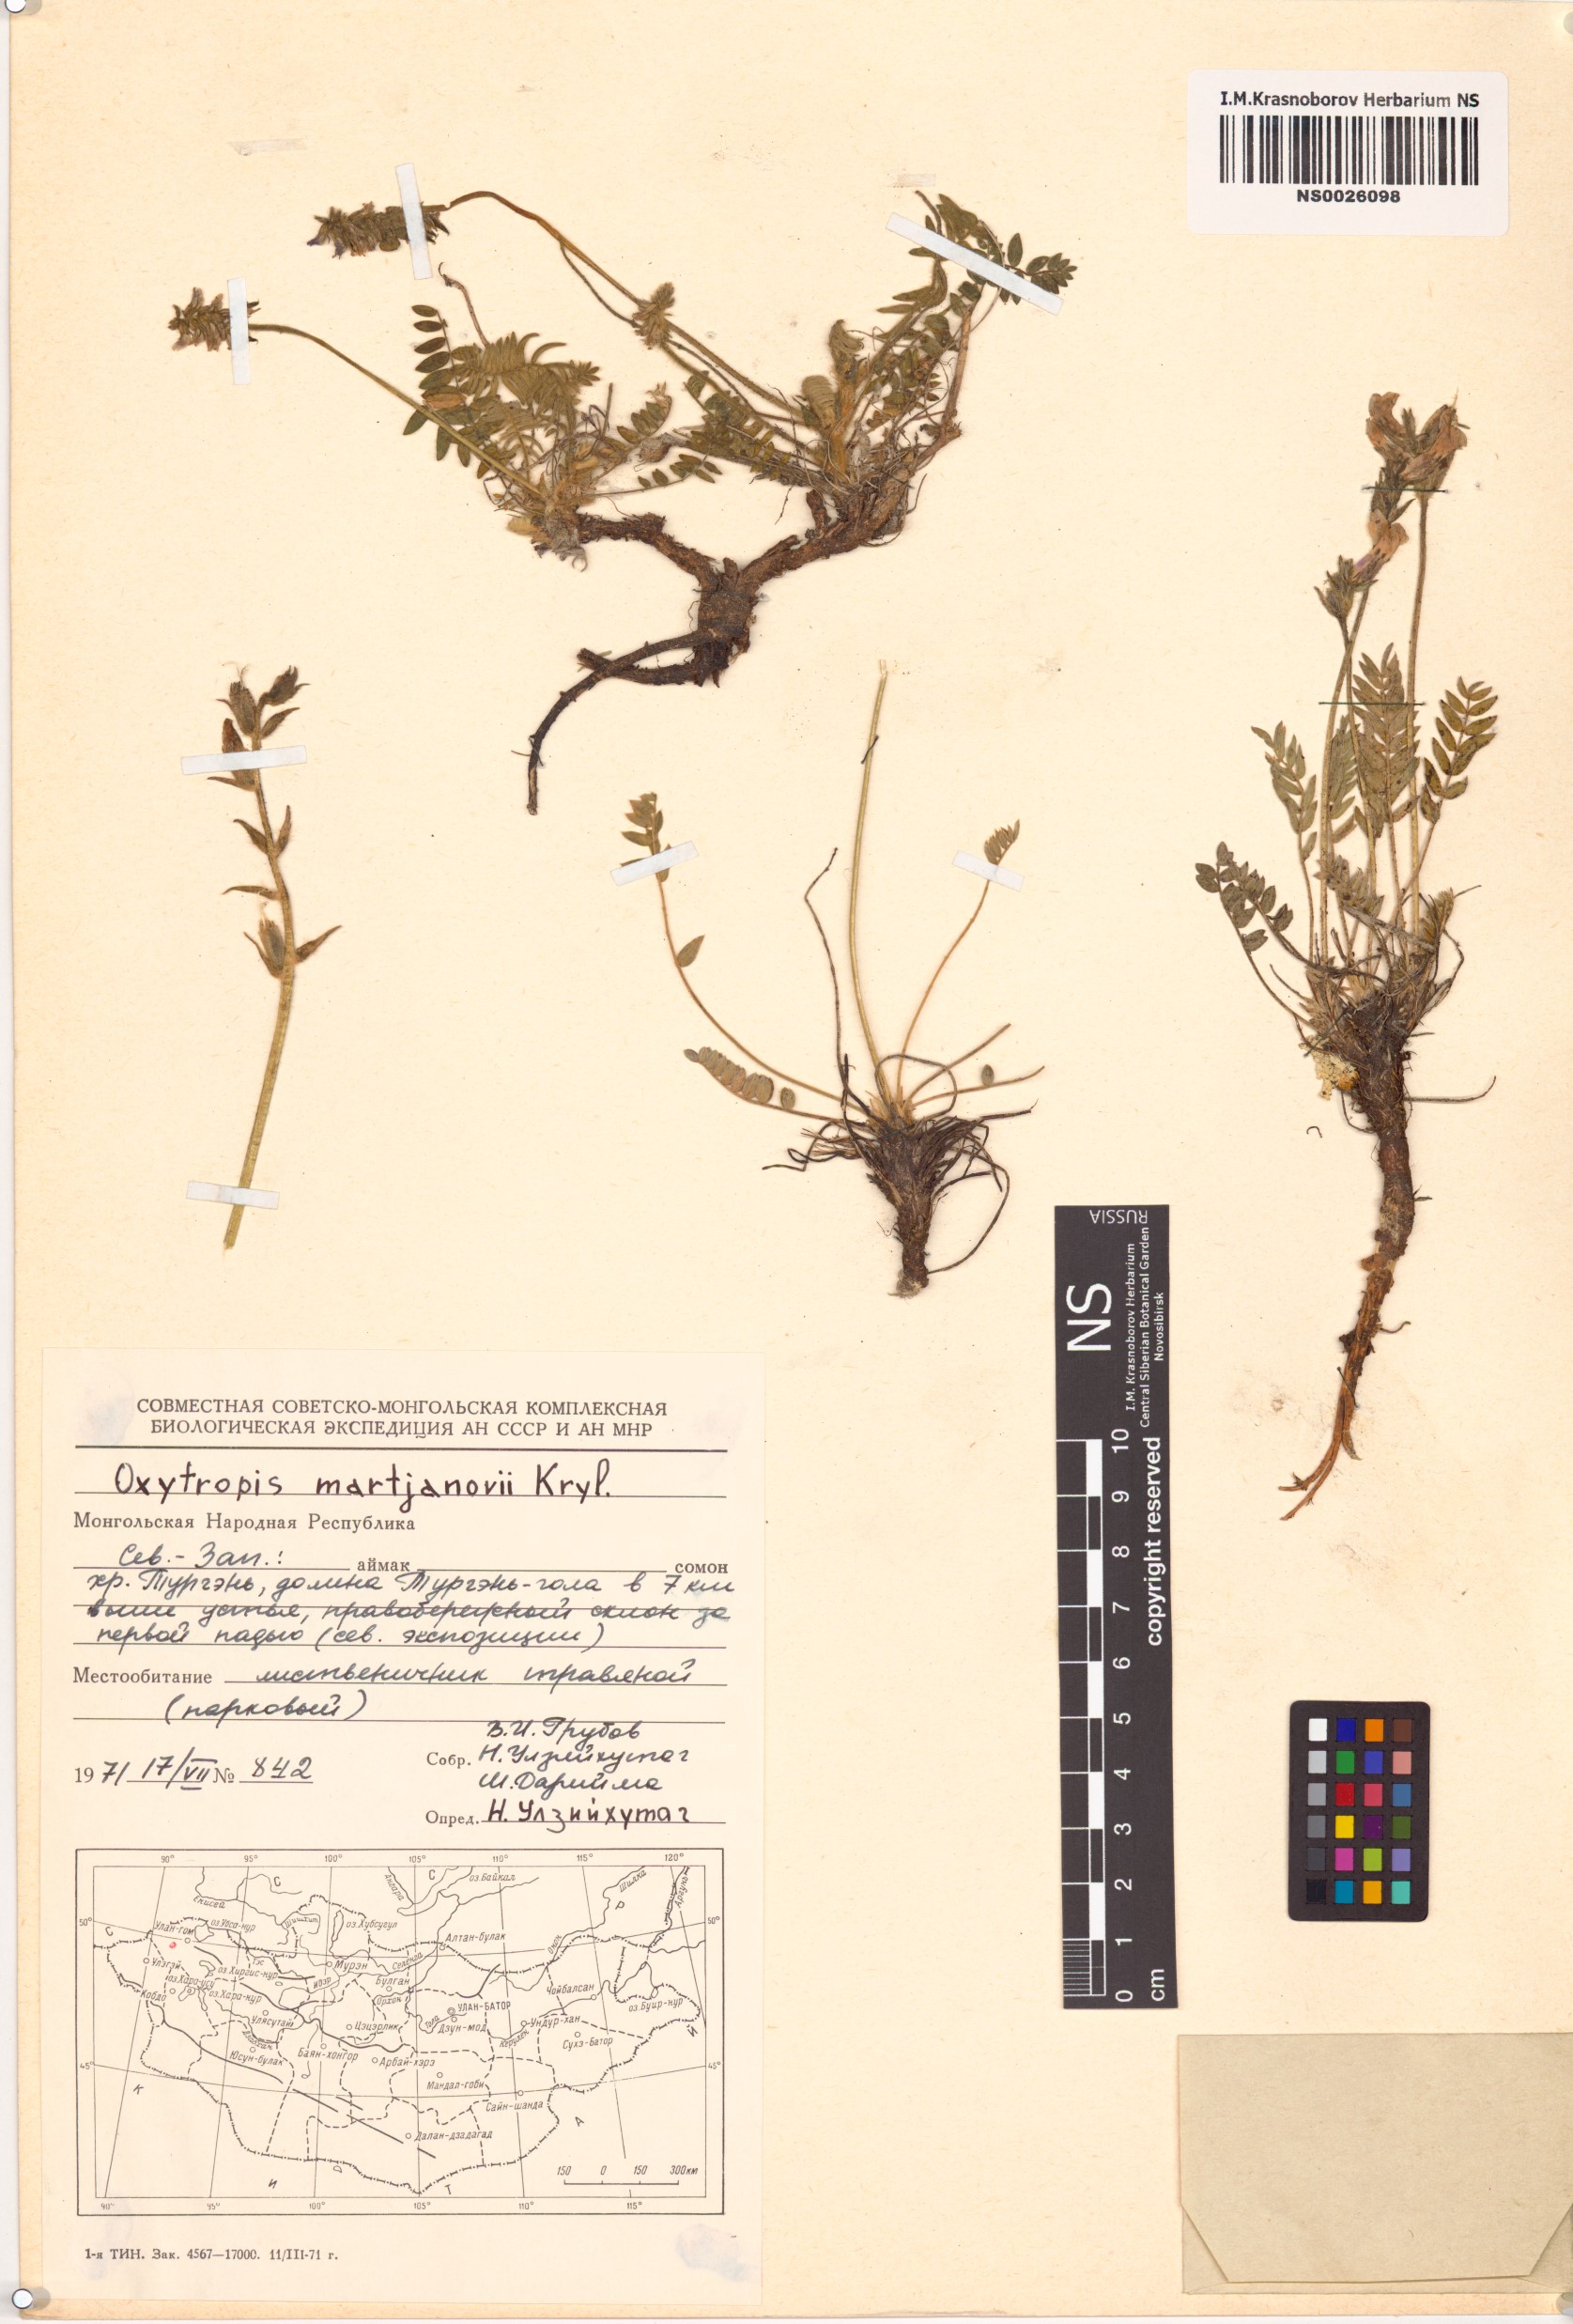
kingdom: Plantae
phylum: Tracheophyta
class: Magnoliopsida
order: Fabales
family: Fabaceae
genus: Oxytropis
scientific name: Oxytropis martjanovii
